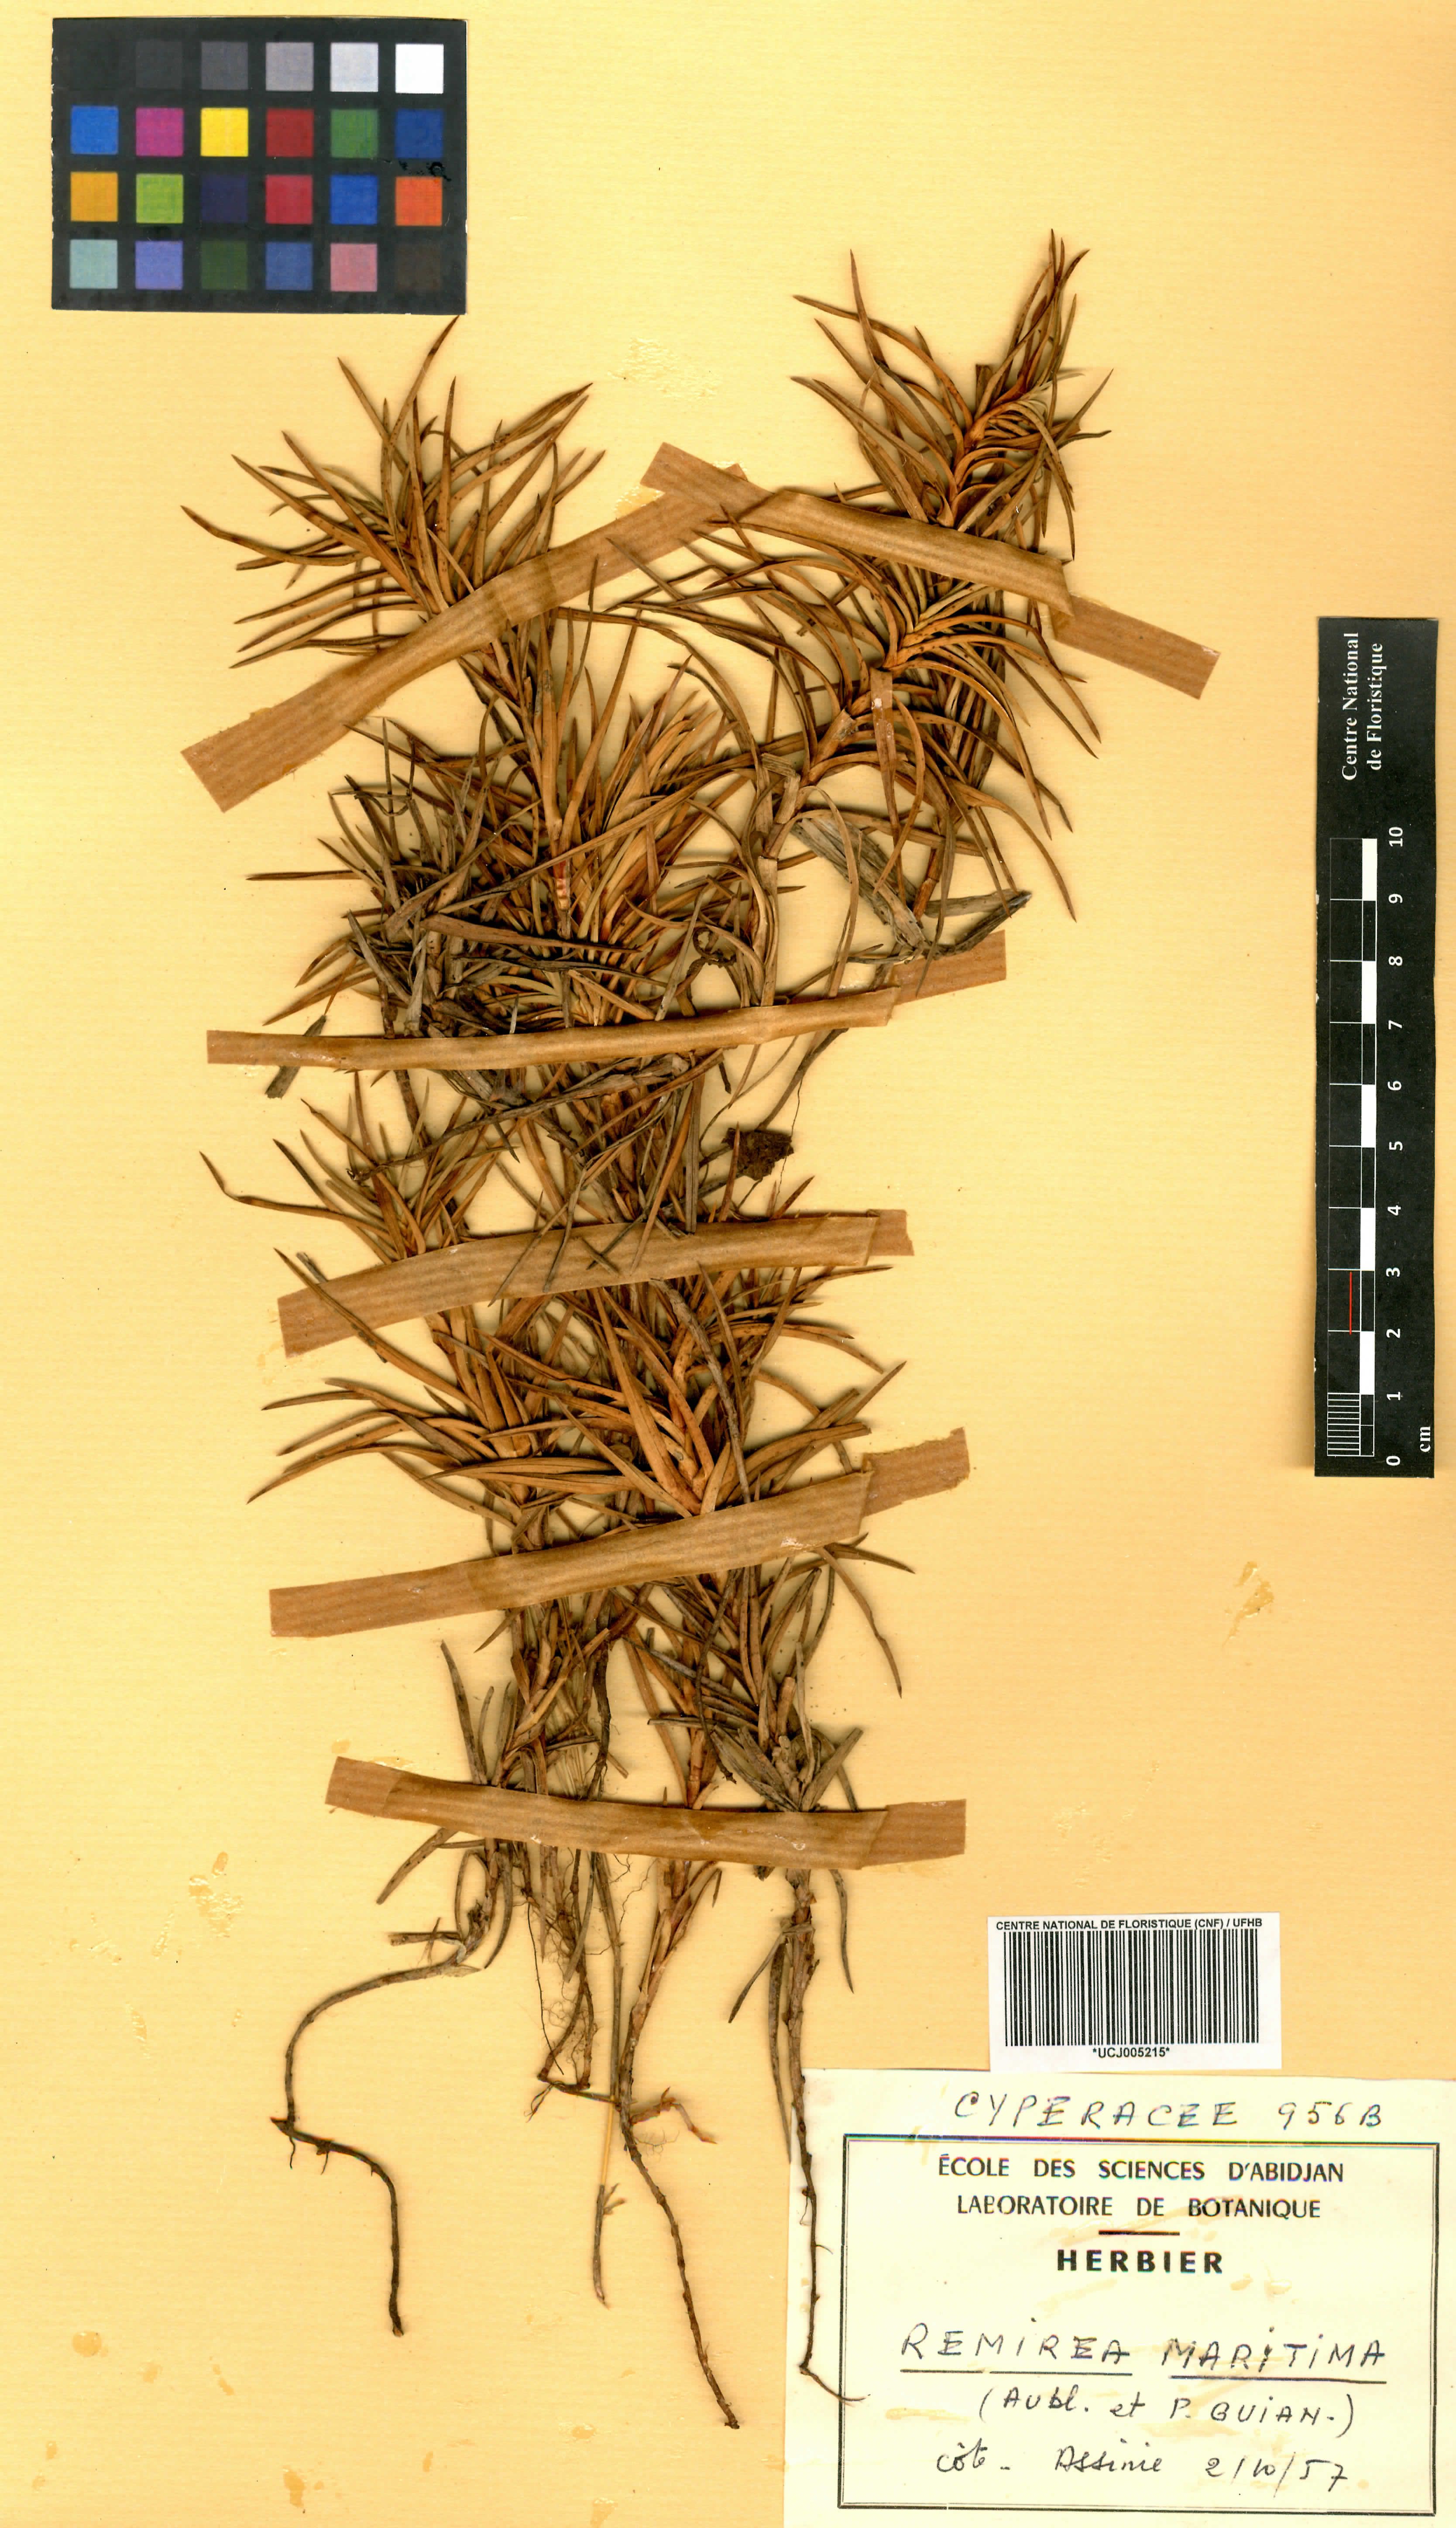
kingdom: Plantae
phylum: Tracheophyta
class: Liliopsida
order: Poales
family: Cyperaceae
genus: Cyperus
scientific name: Cyperus pedunculatus
